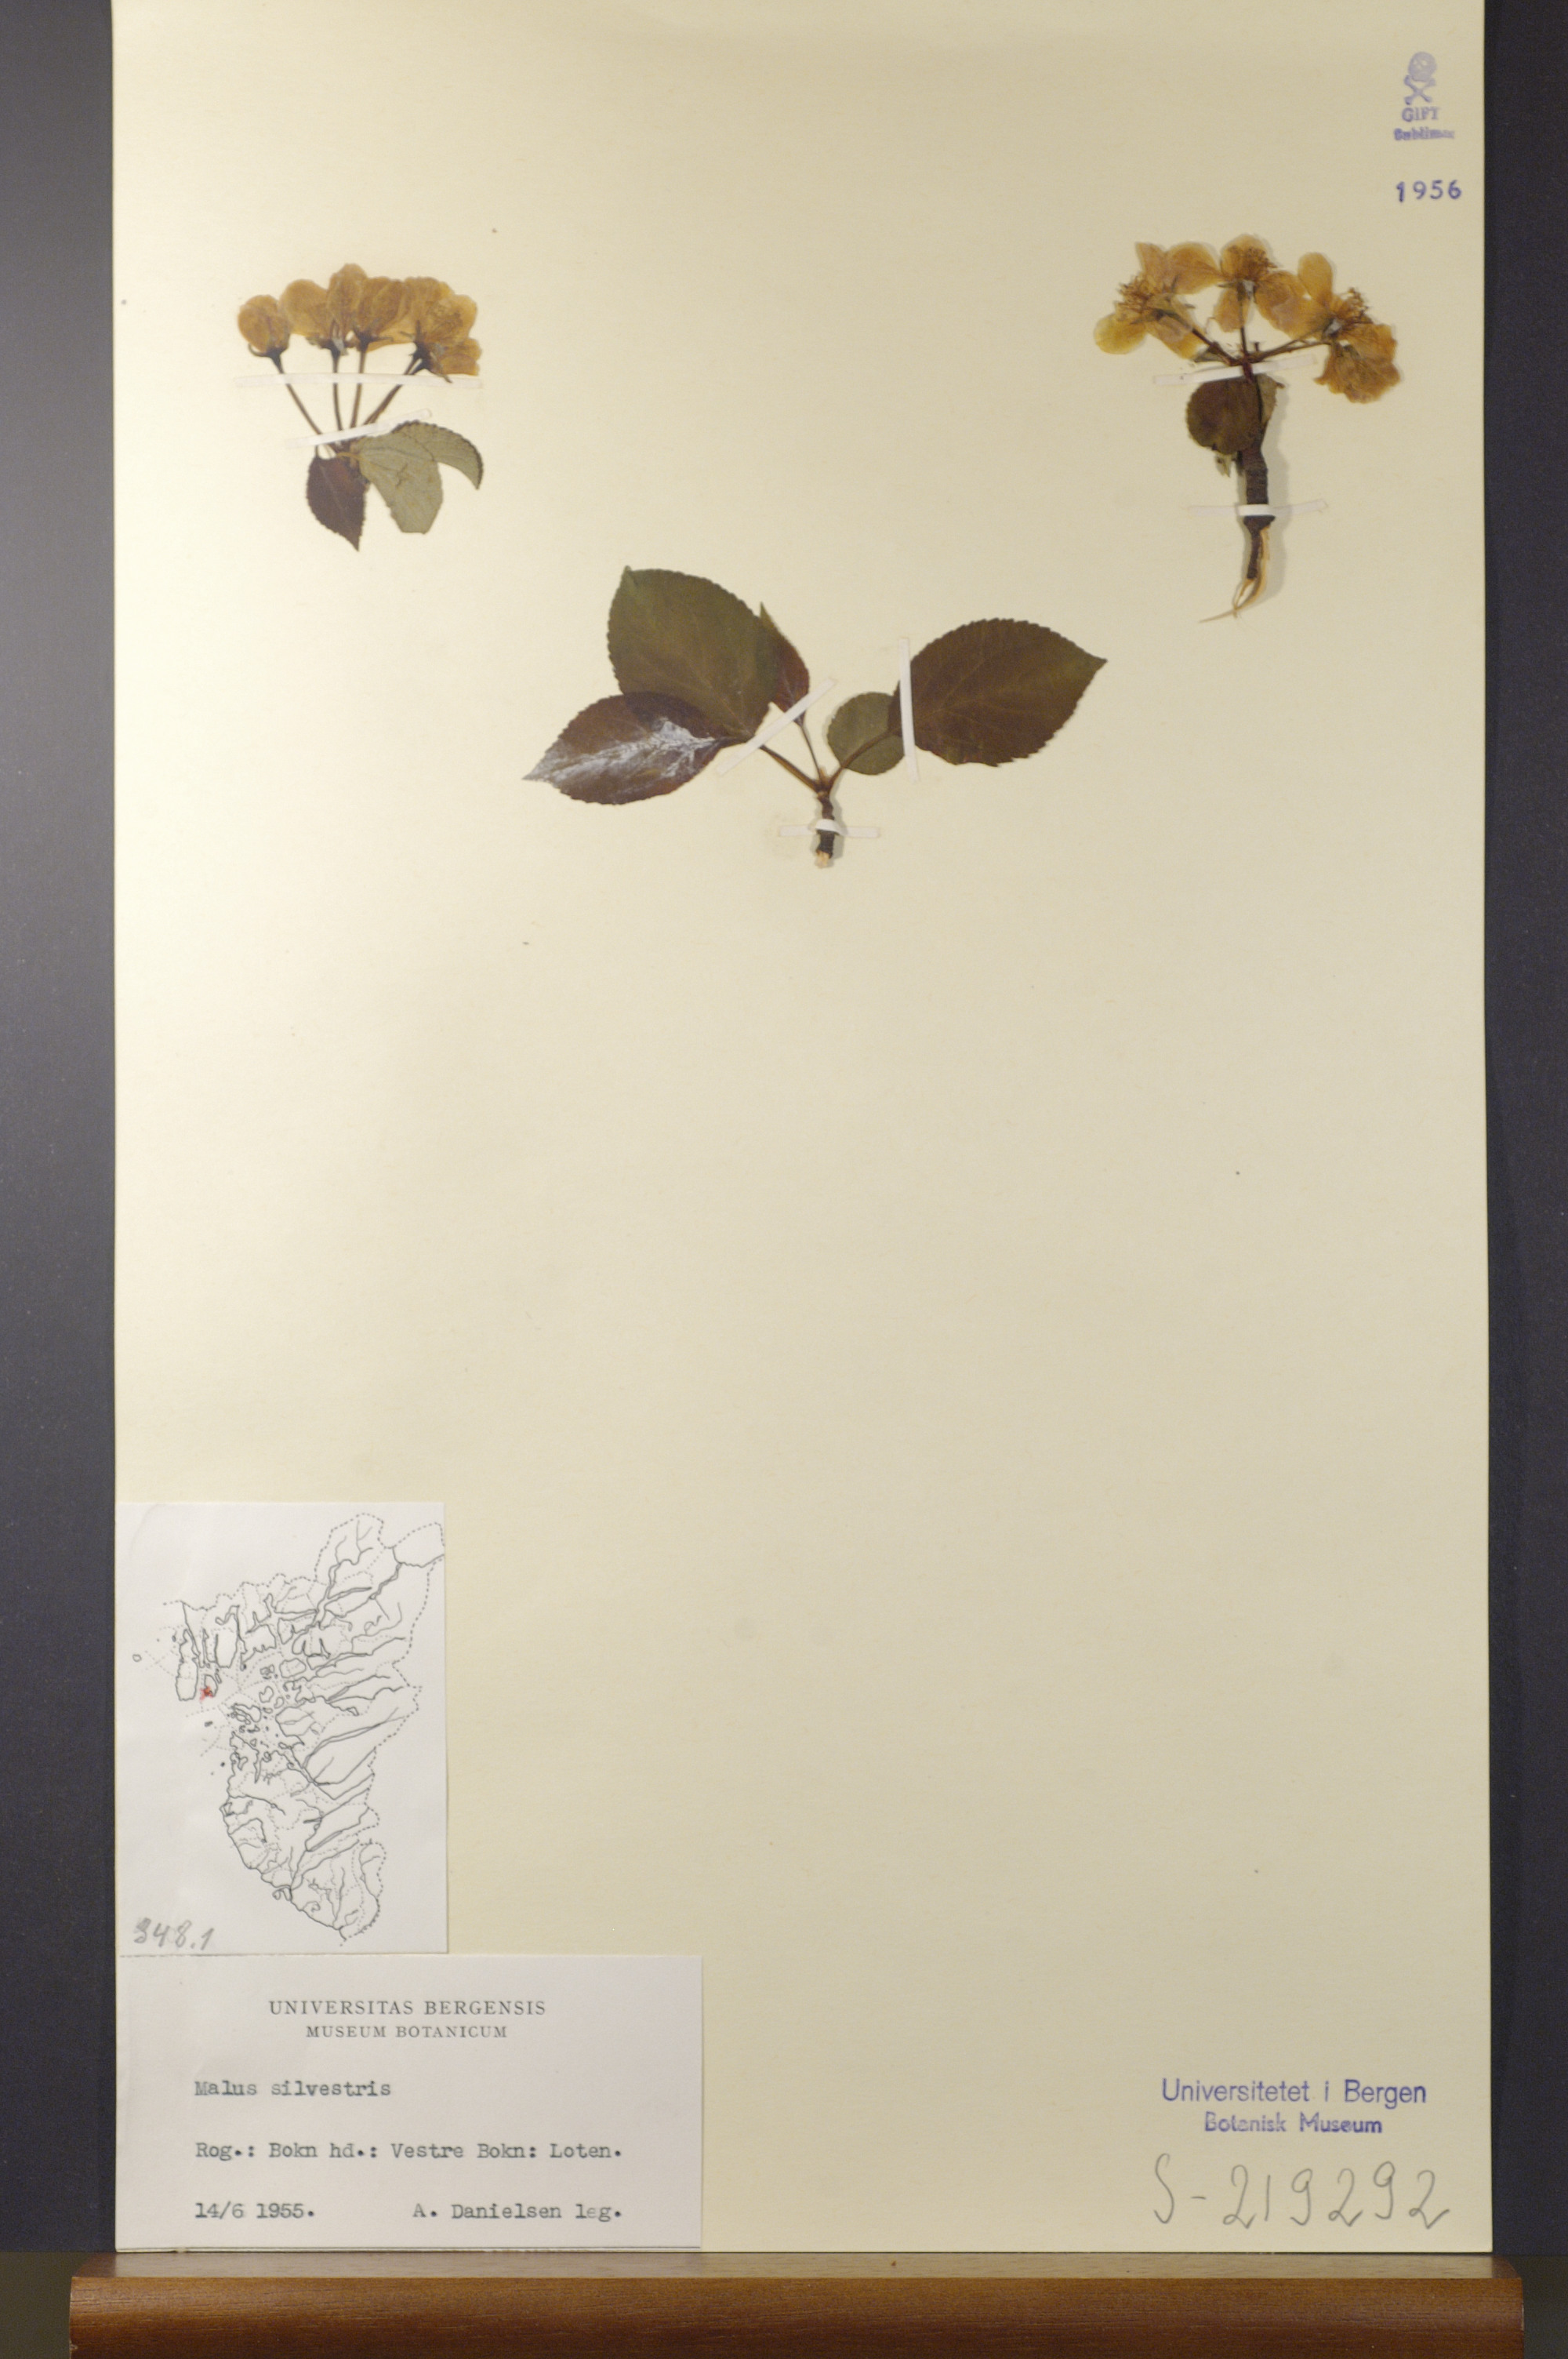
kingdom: Plantae
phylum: Tracheophyta
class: Magnoliopsida
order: Rosales
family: Rosaceae
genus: Malus
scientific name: Malus sylvestris
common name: Crab apple
